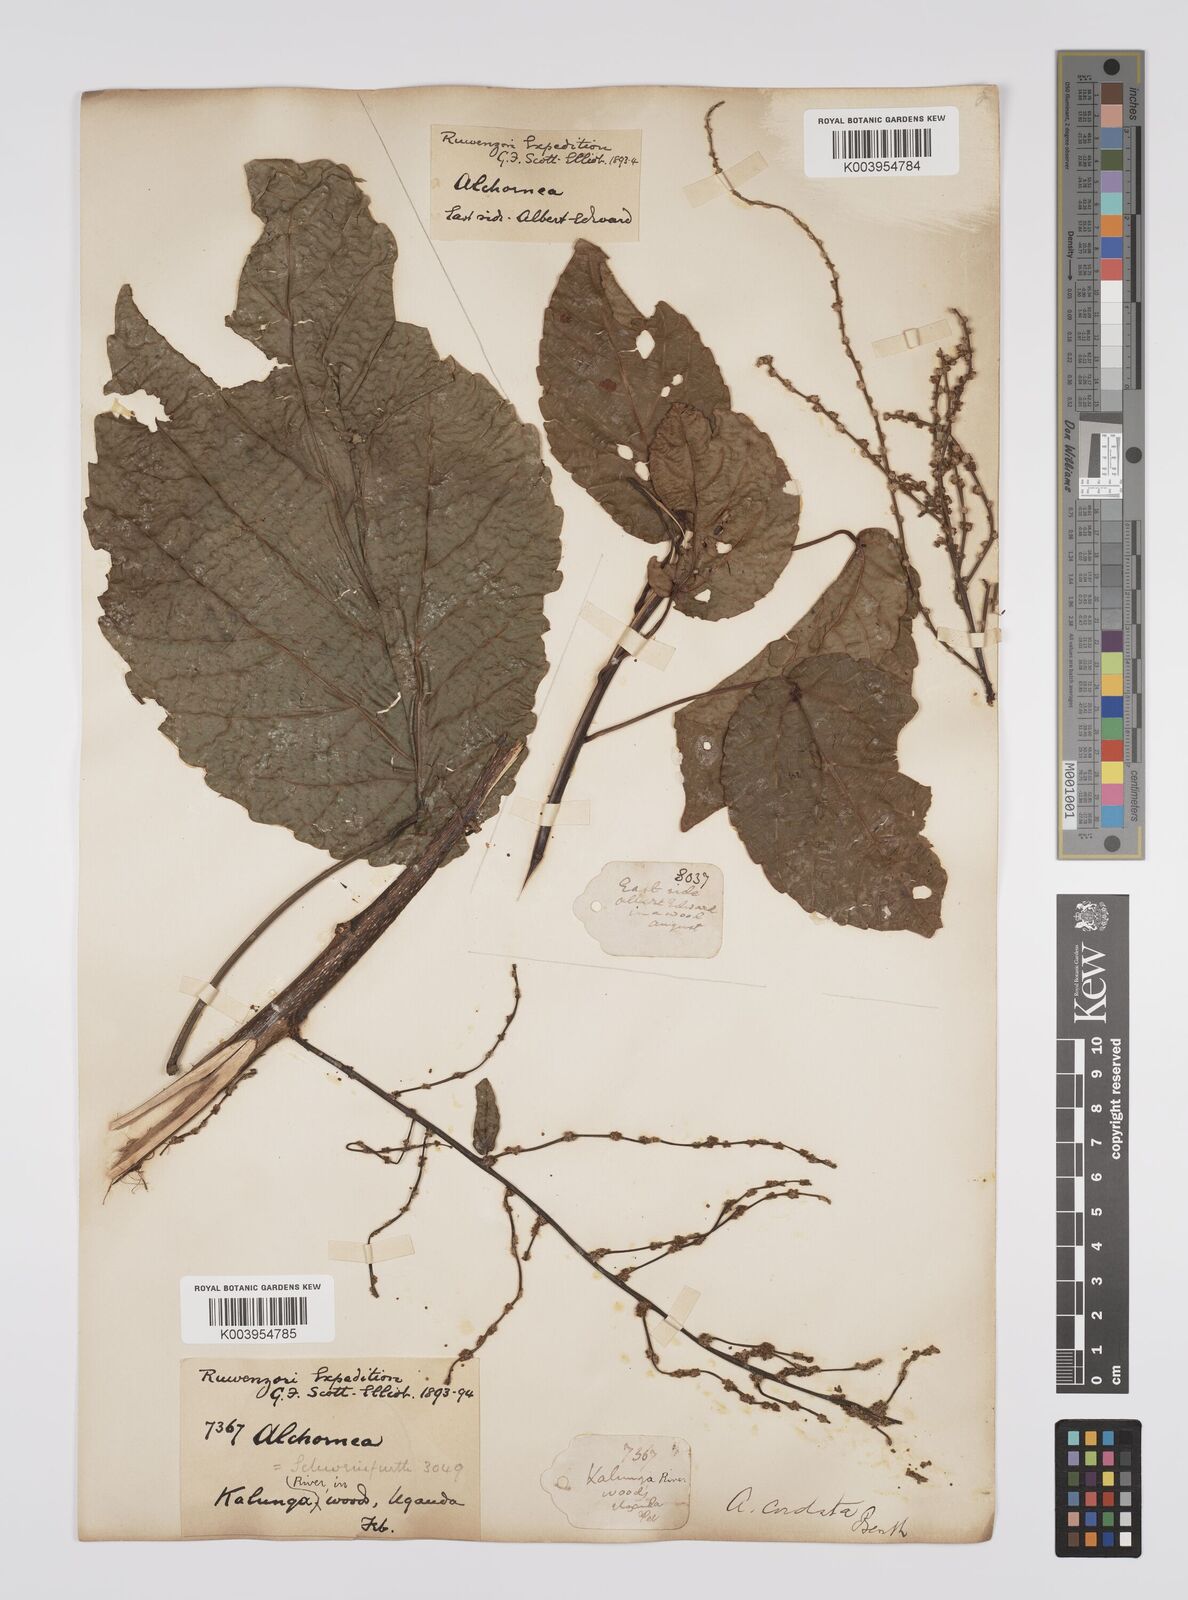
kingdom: Plantae
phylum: Tracheophyta
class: Magnoliopsida
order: Malpighiales
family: Euphorbiaceae
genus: Alchornea
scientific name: Alchornea cordifolia
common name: Christmasbush
